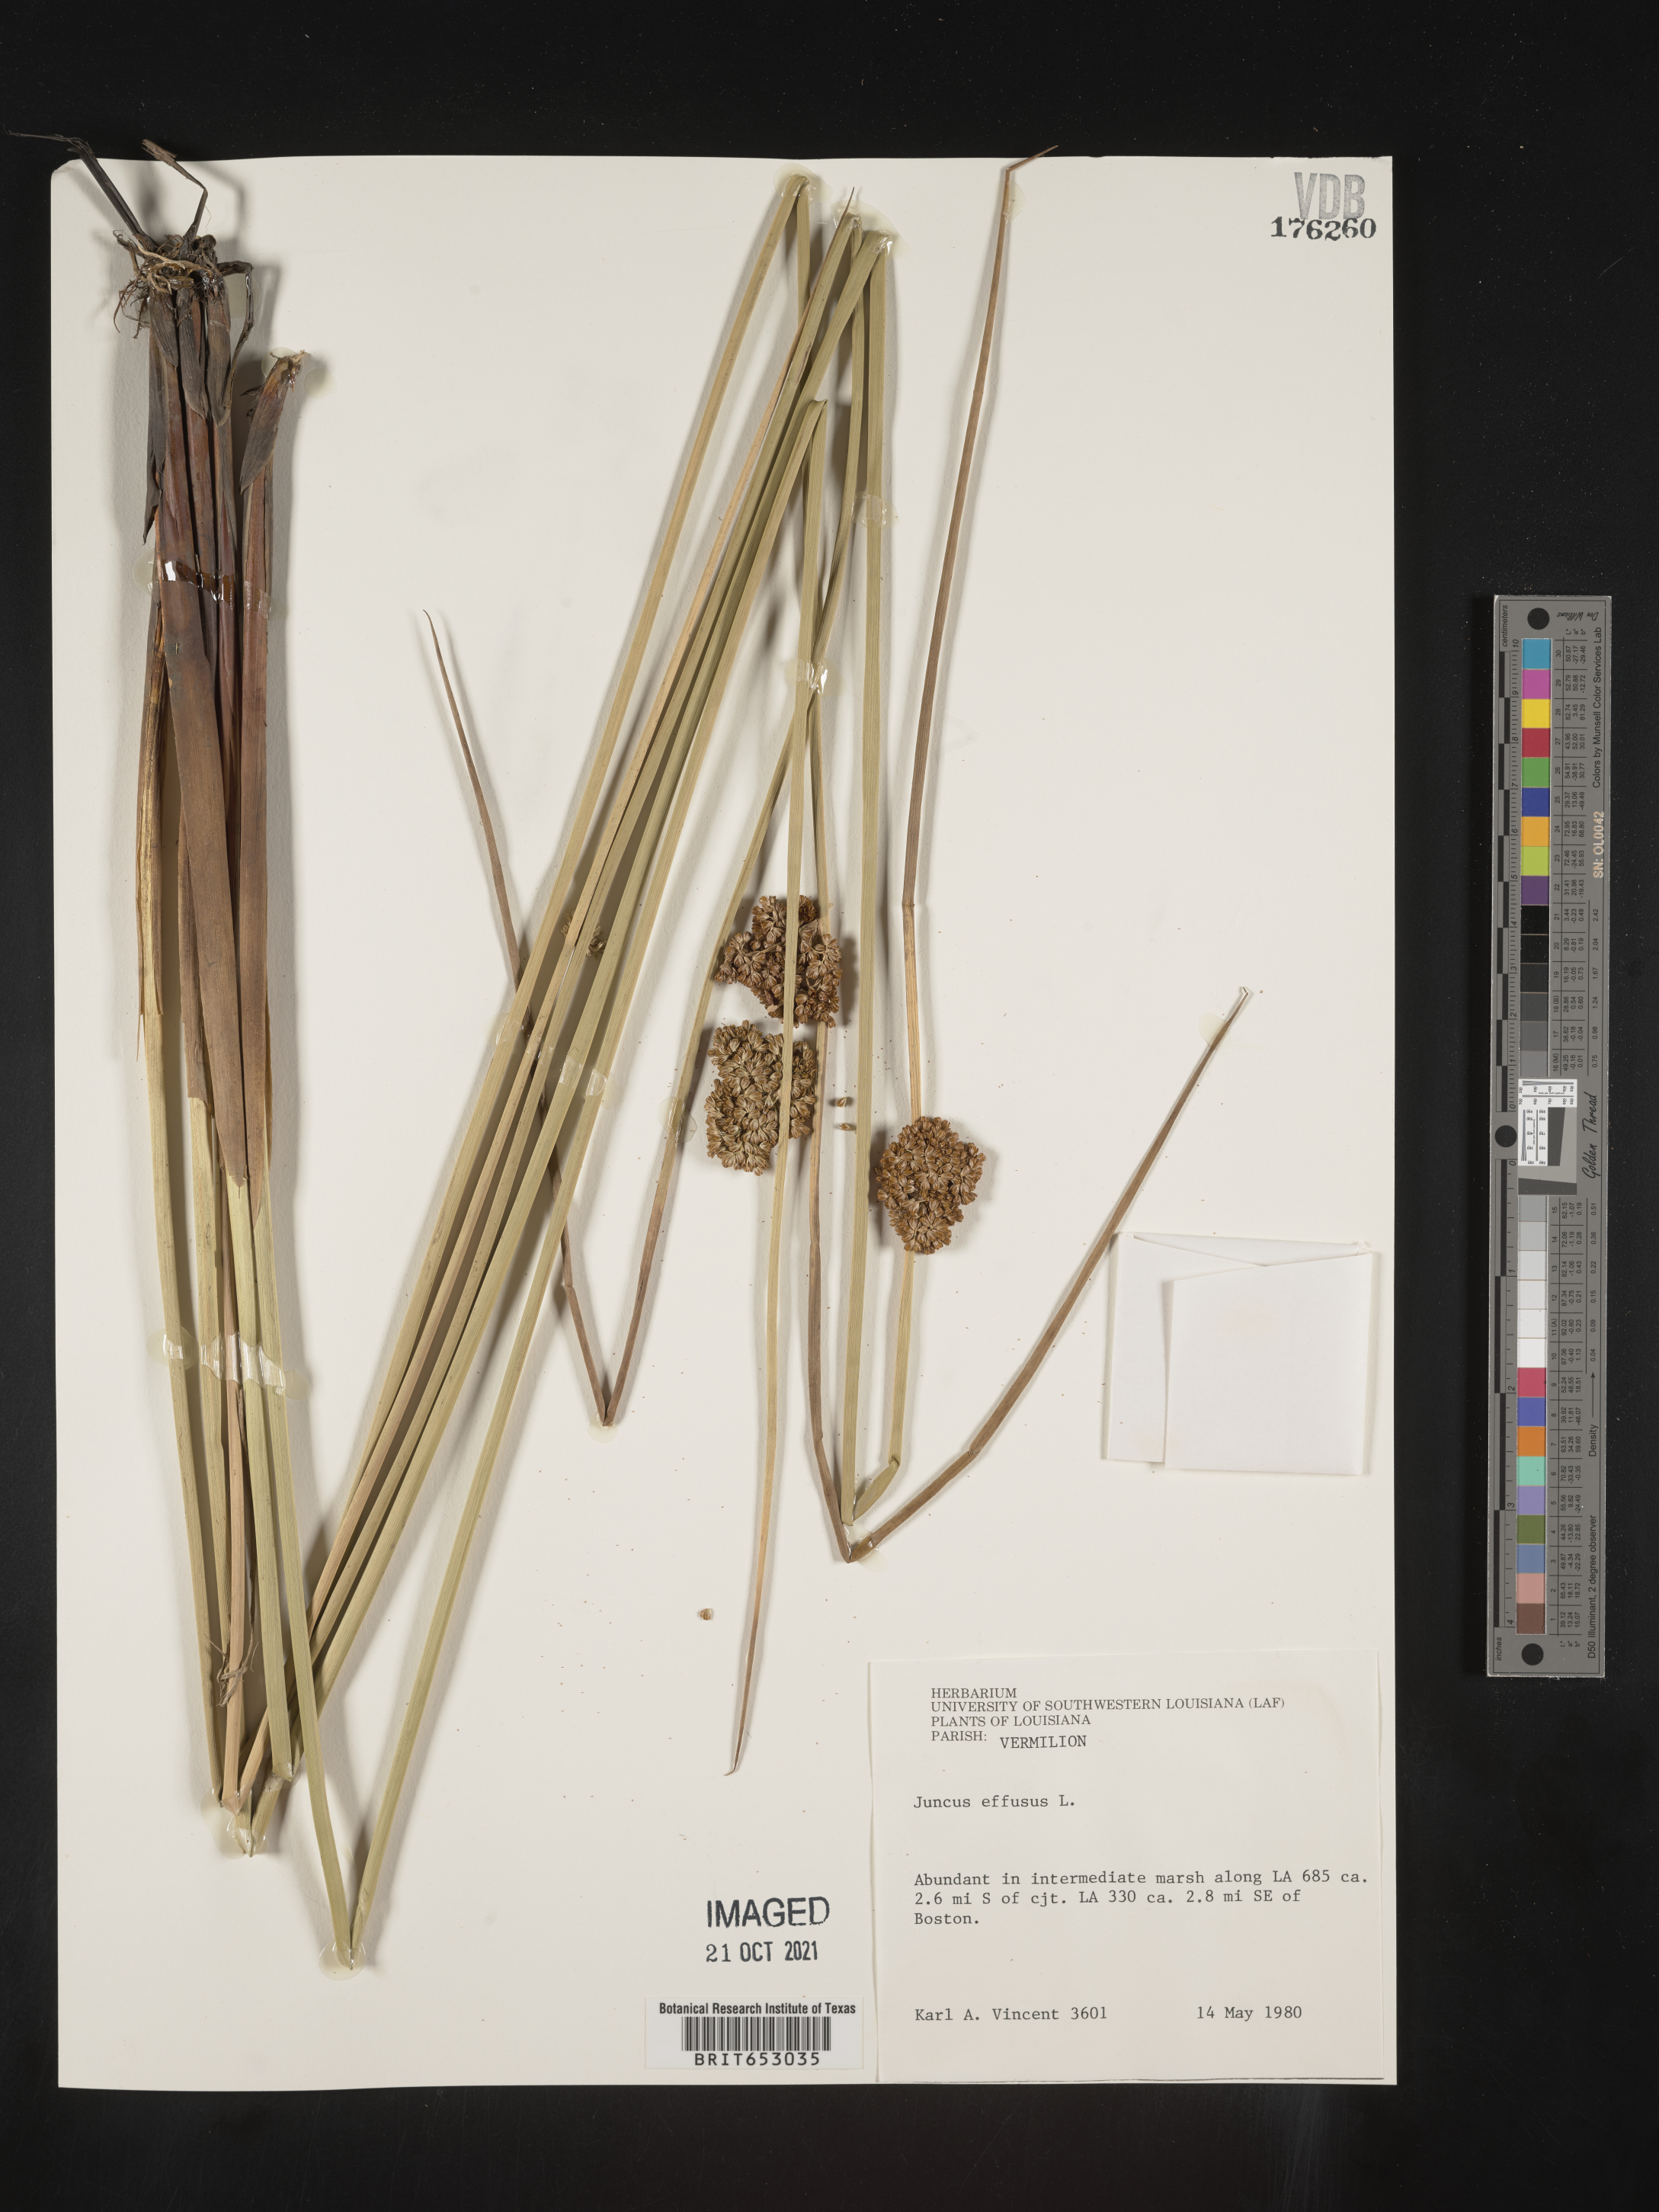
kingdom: Plantae
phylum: Tracheophyta
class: Liliopsida
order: Poales
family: Juncaceae
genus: Juncus
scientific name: Juncus effusus
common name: Soft rush
